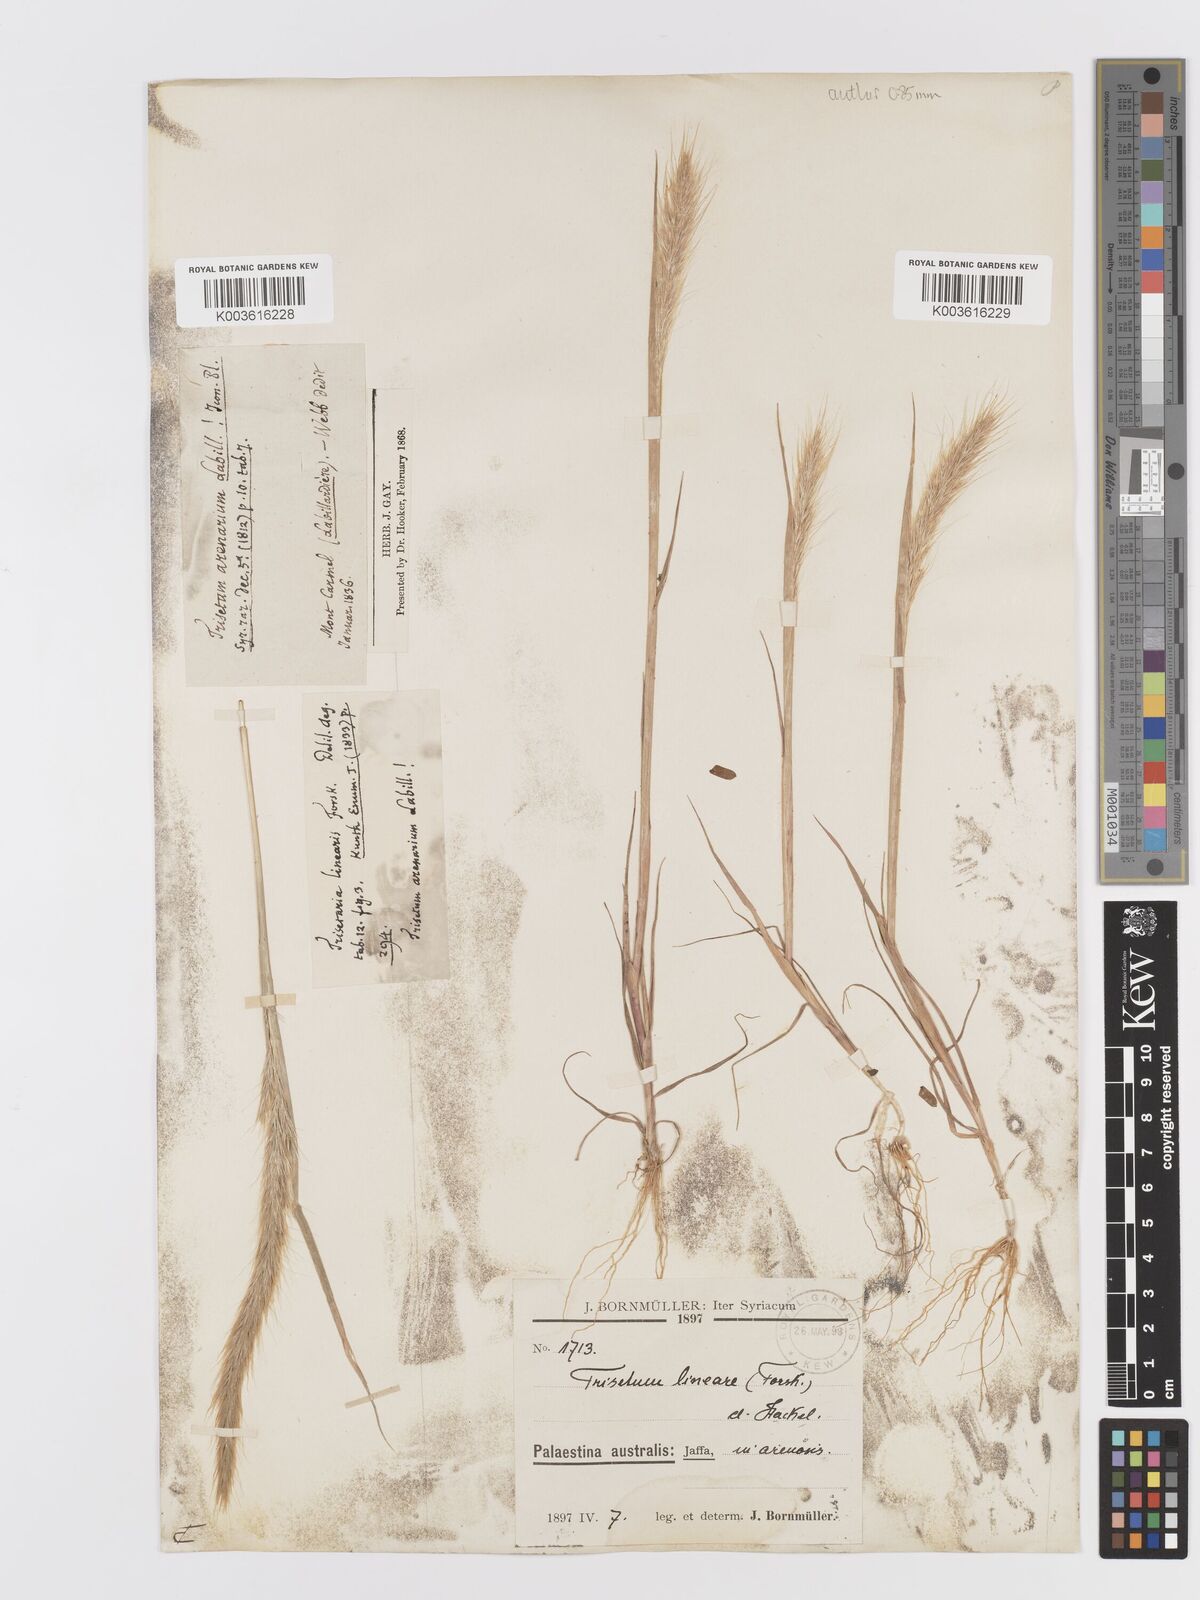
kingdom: Plantae
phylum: Tracheophyta
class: Liliopsida
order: Poales
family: Poaceae
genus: Trisetaria
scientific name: Trisetaria linearis
